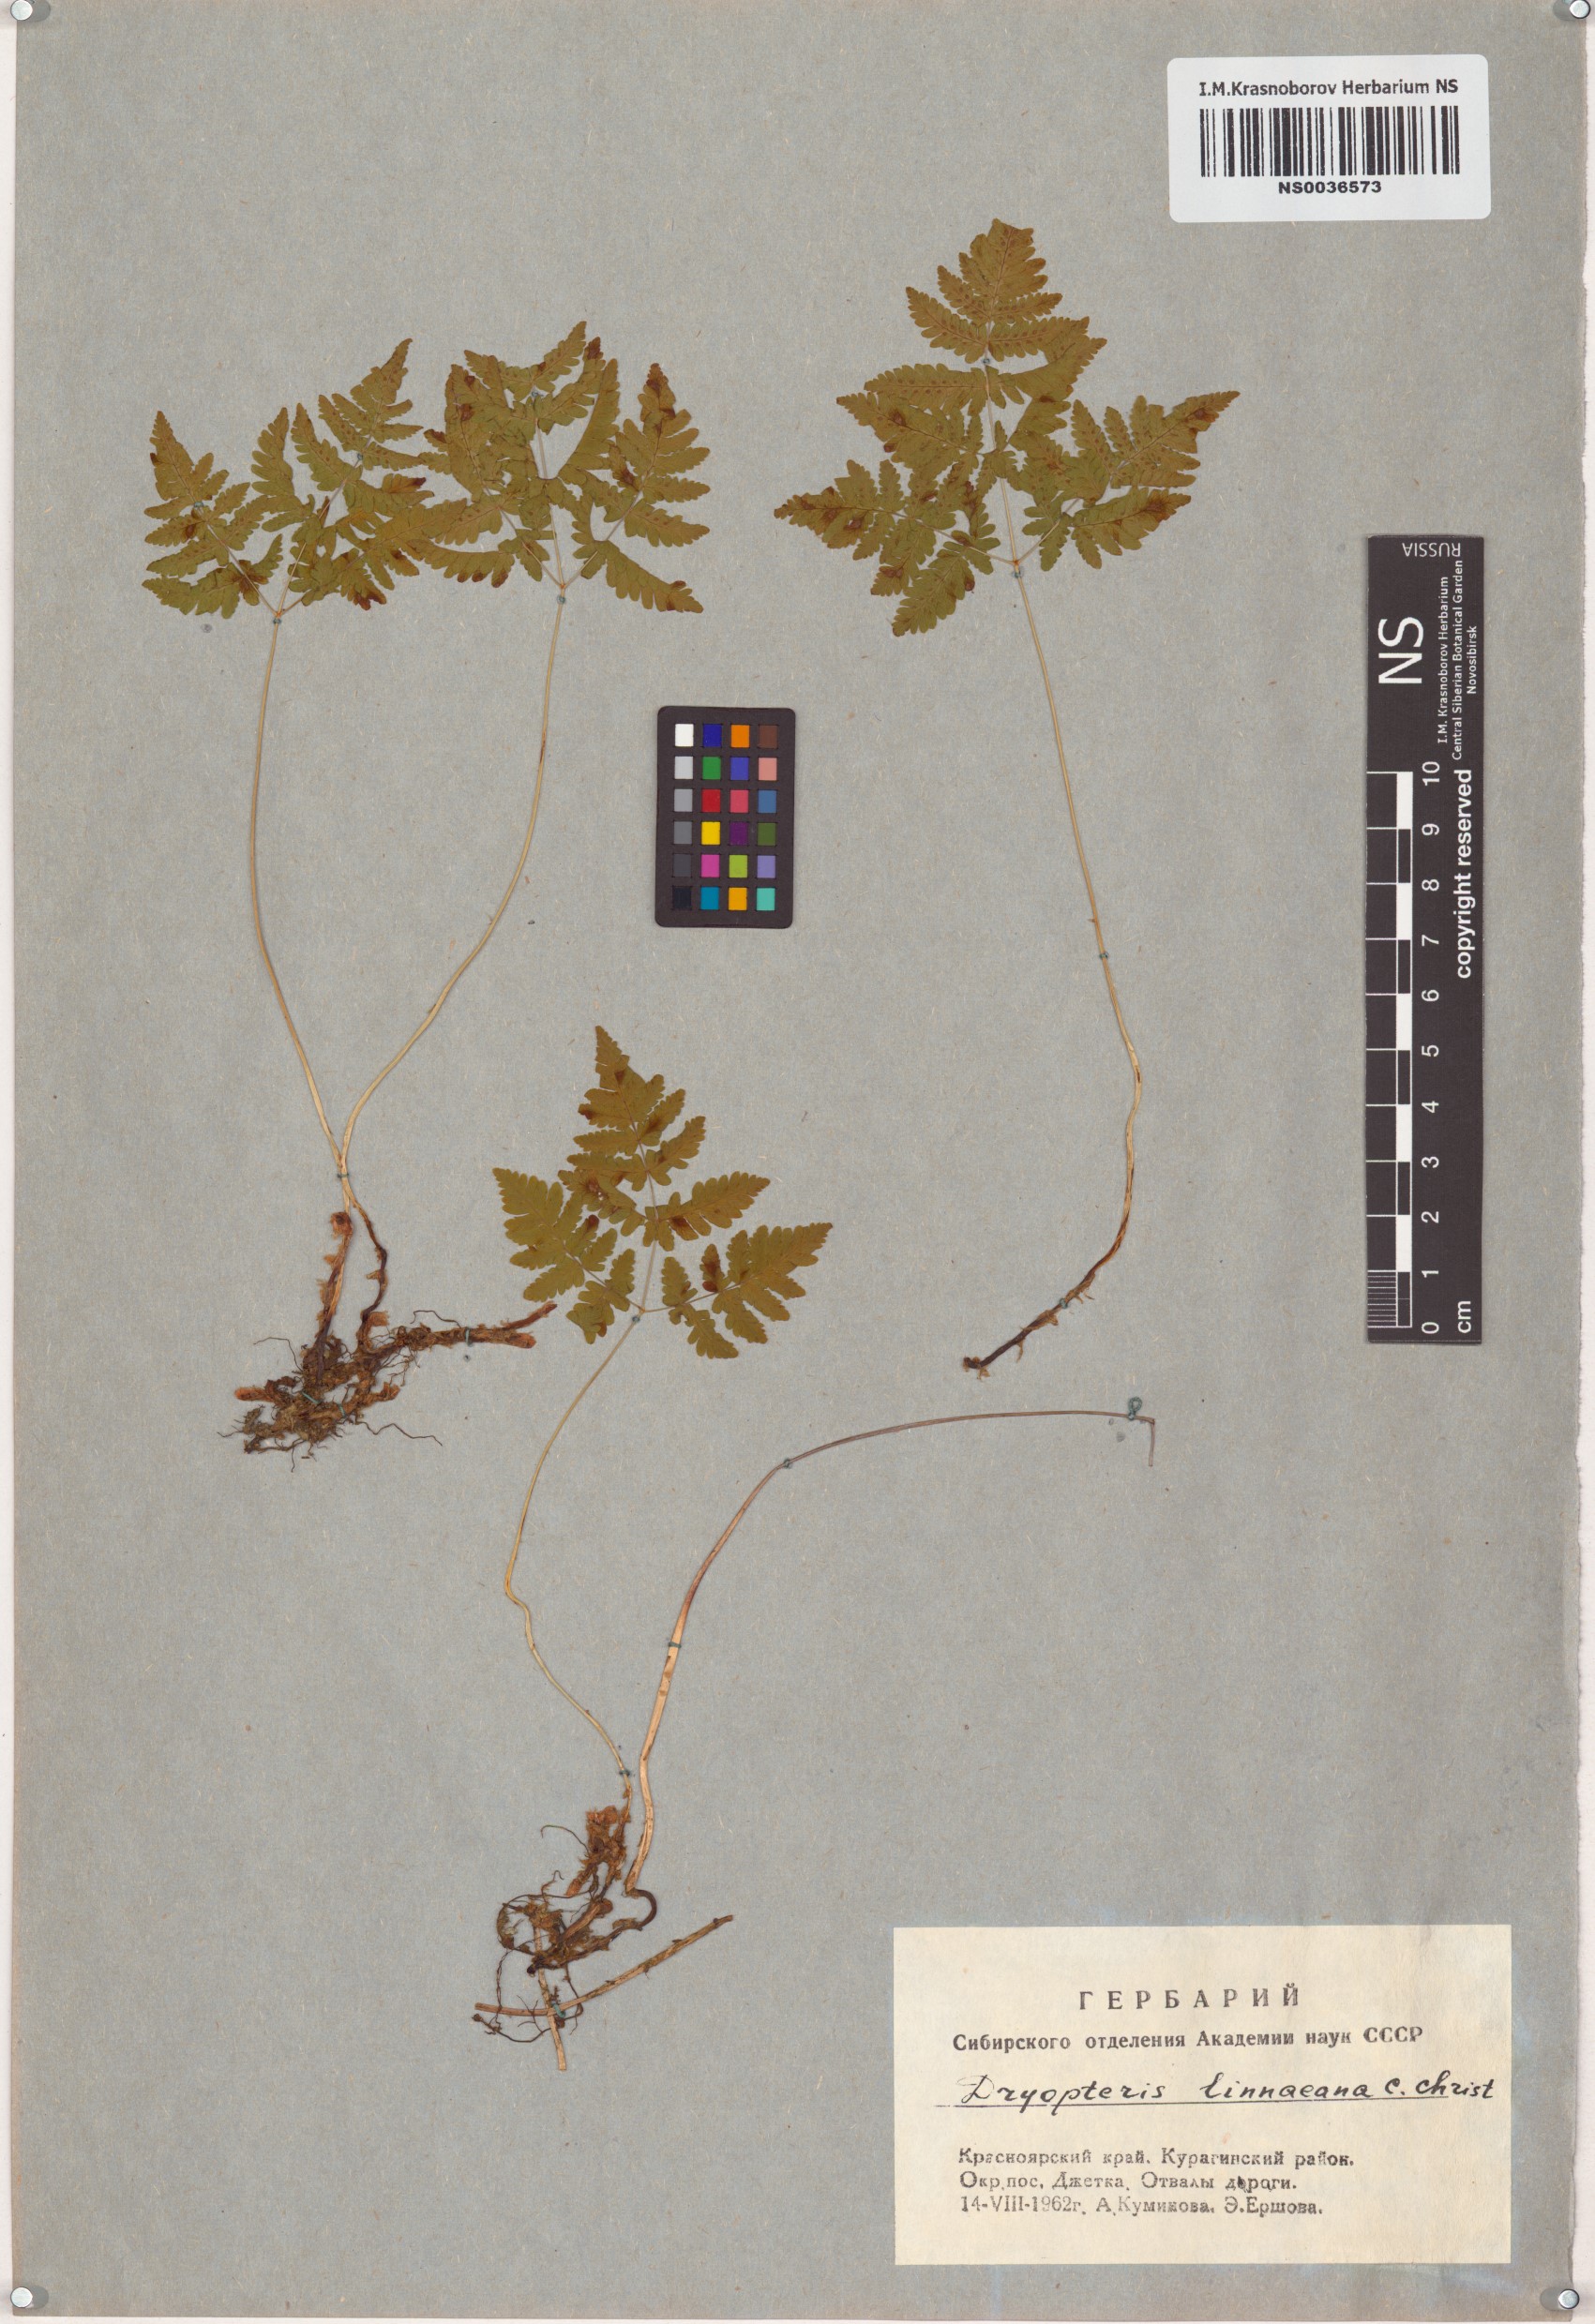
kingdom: Plantae
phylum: Tracheophyta
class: Polypodiopsida
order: Polypodiales
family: Cystopteridaceae
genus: Gymnocarpium
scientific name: Gymnocarpium dryopteris
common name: Oak fern
